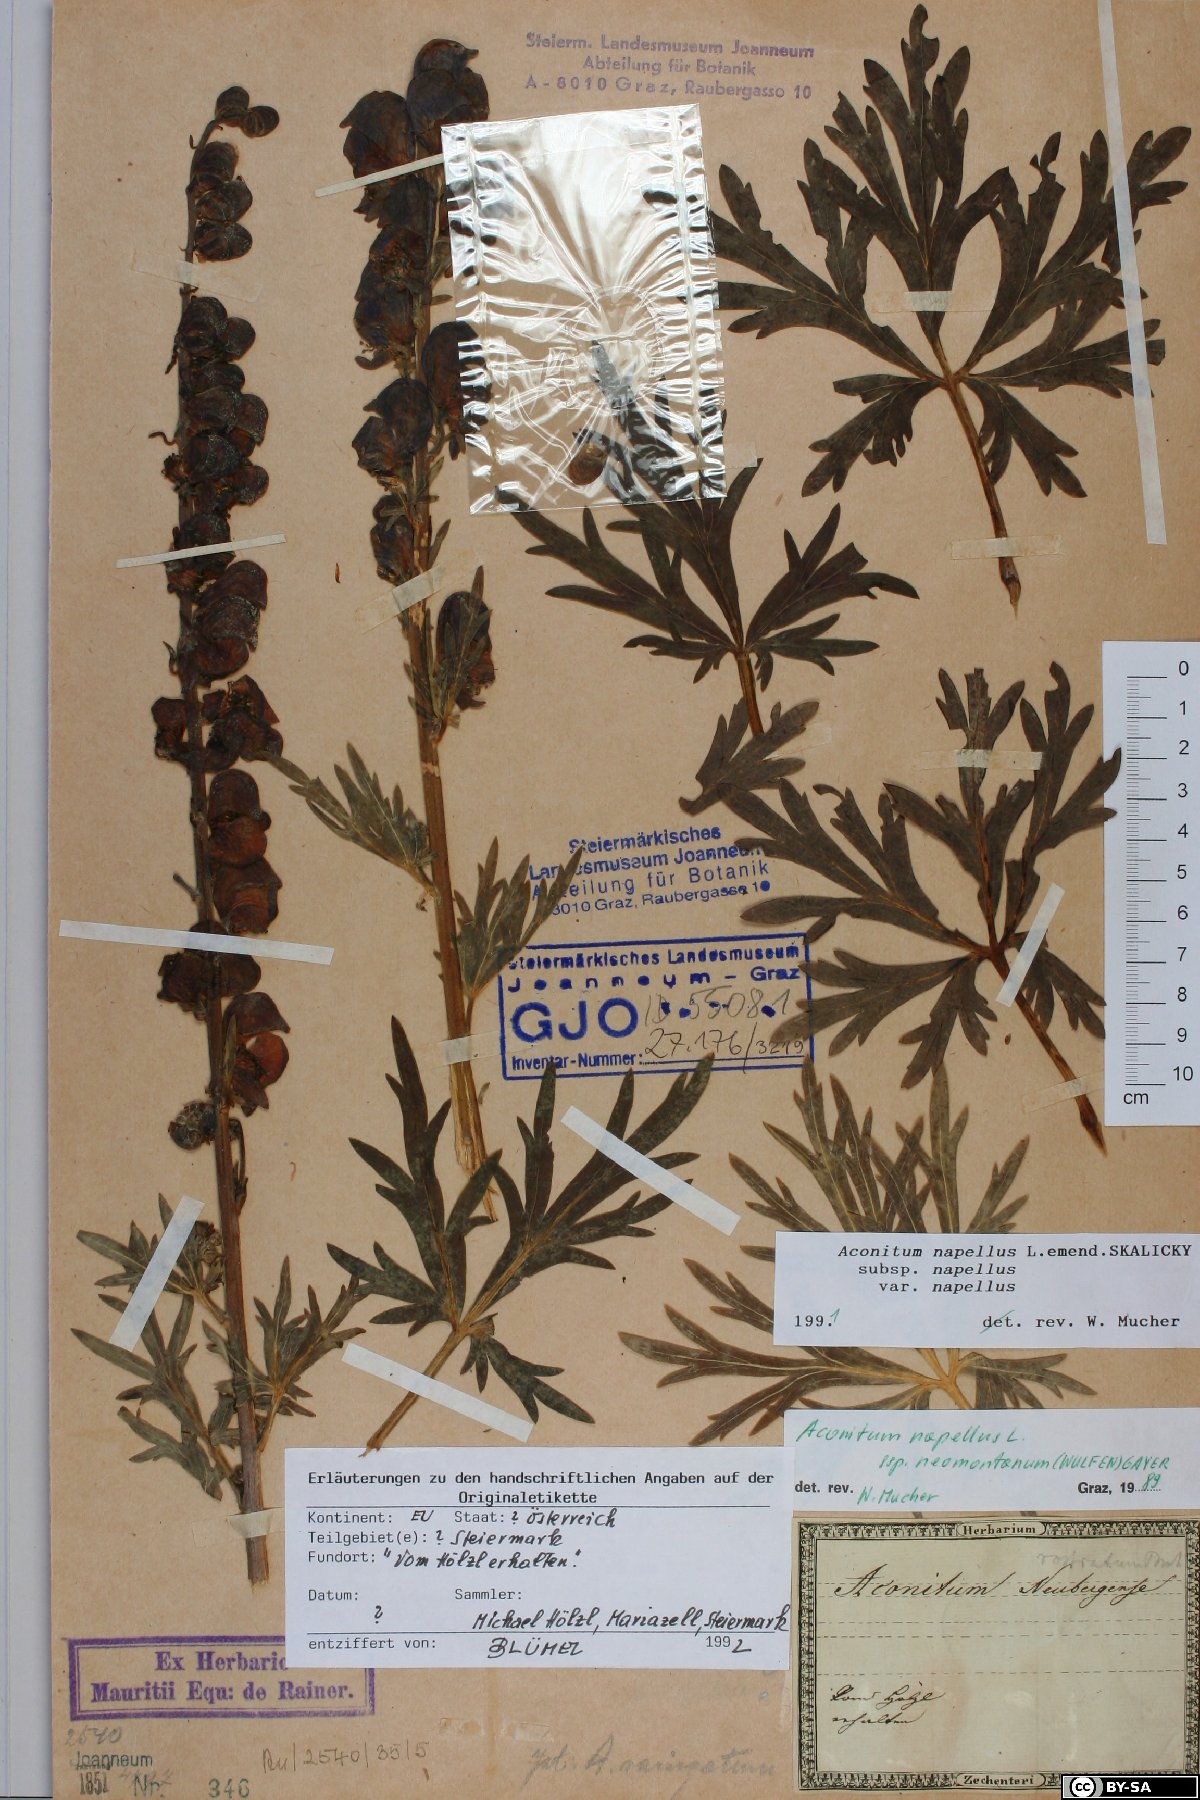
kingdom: Plantae
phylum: Tracheophyta
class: Magnoliopsida
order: Ranunculales
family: Ranunculaceae
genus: Aconitum
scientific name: Aconitum napellus
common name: Garden monkshood
